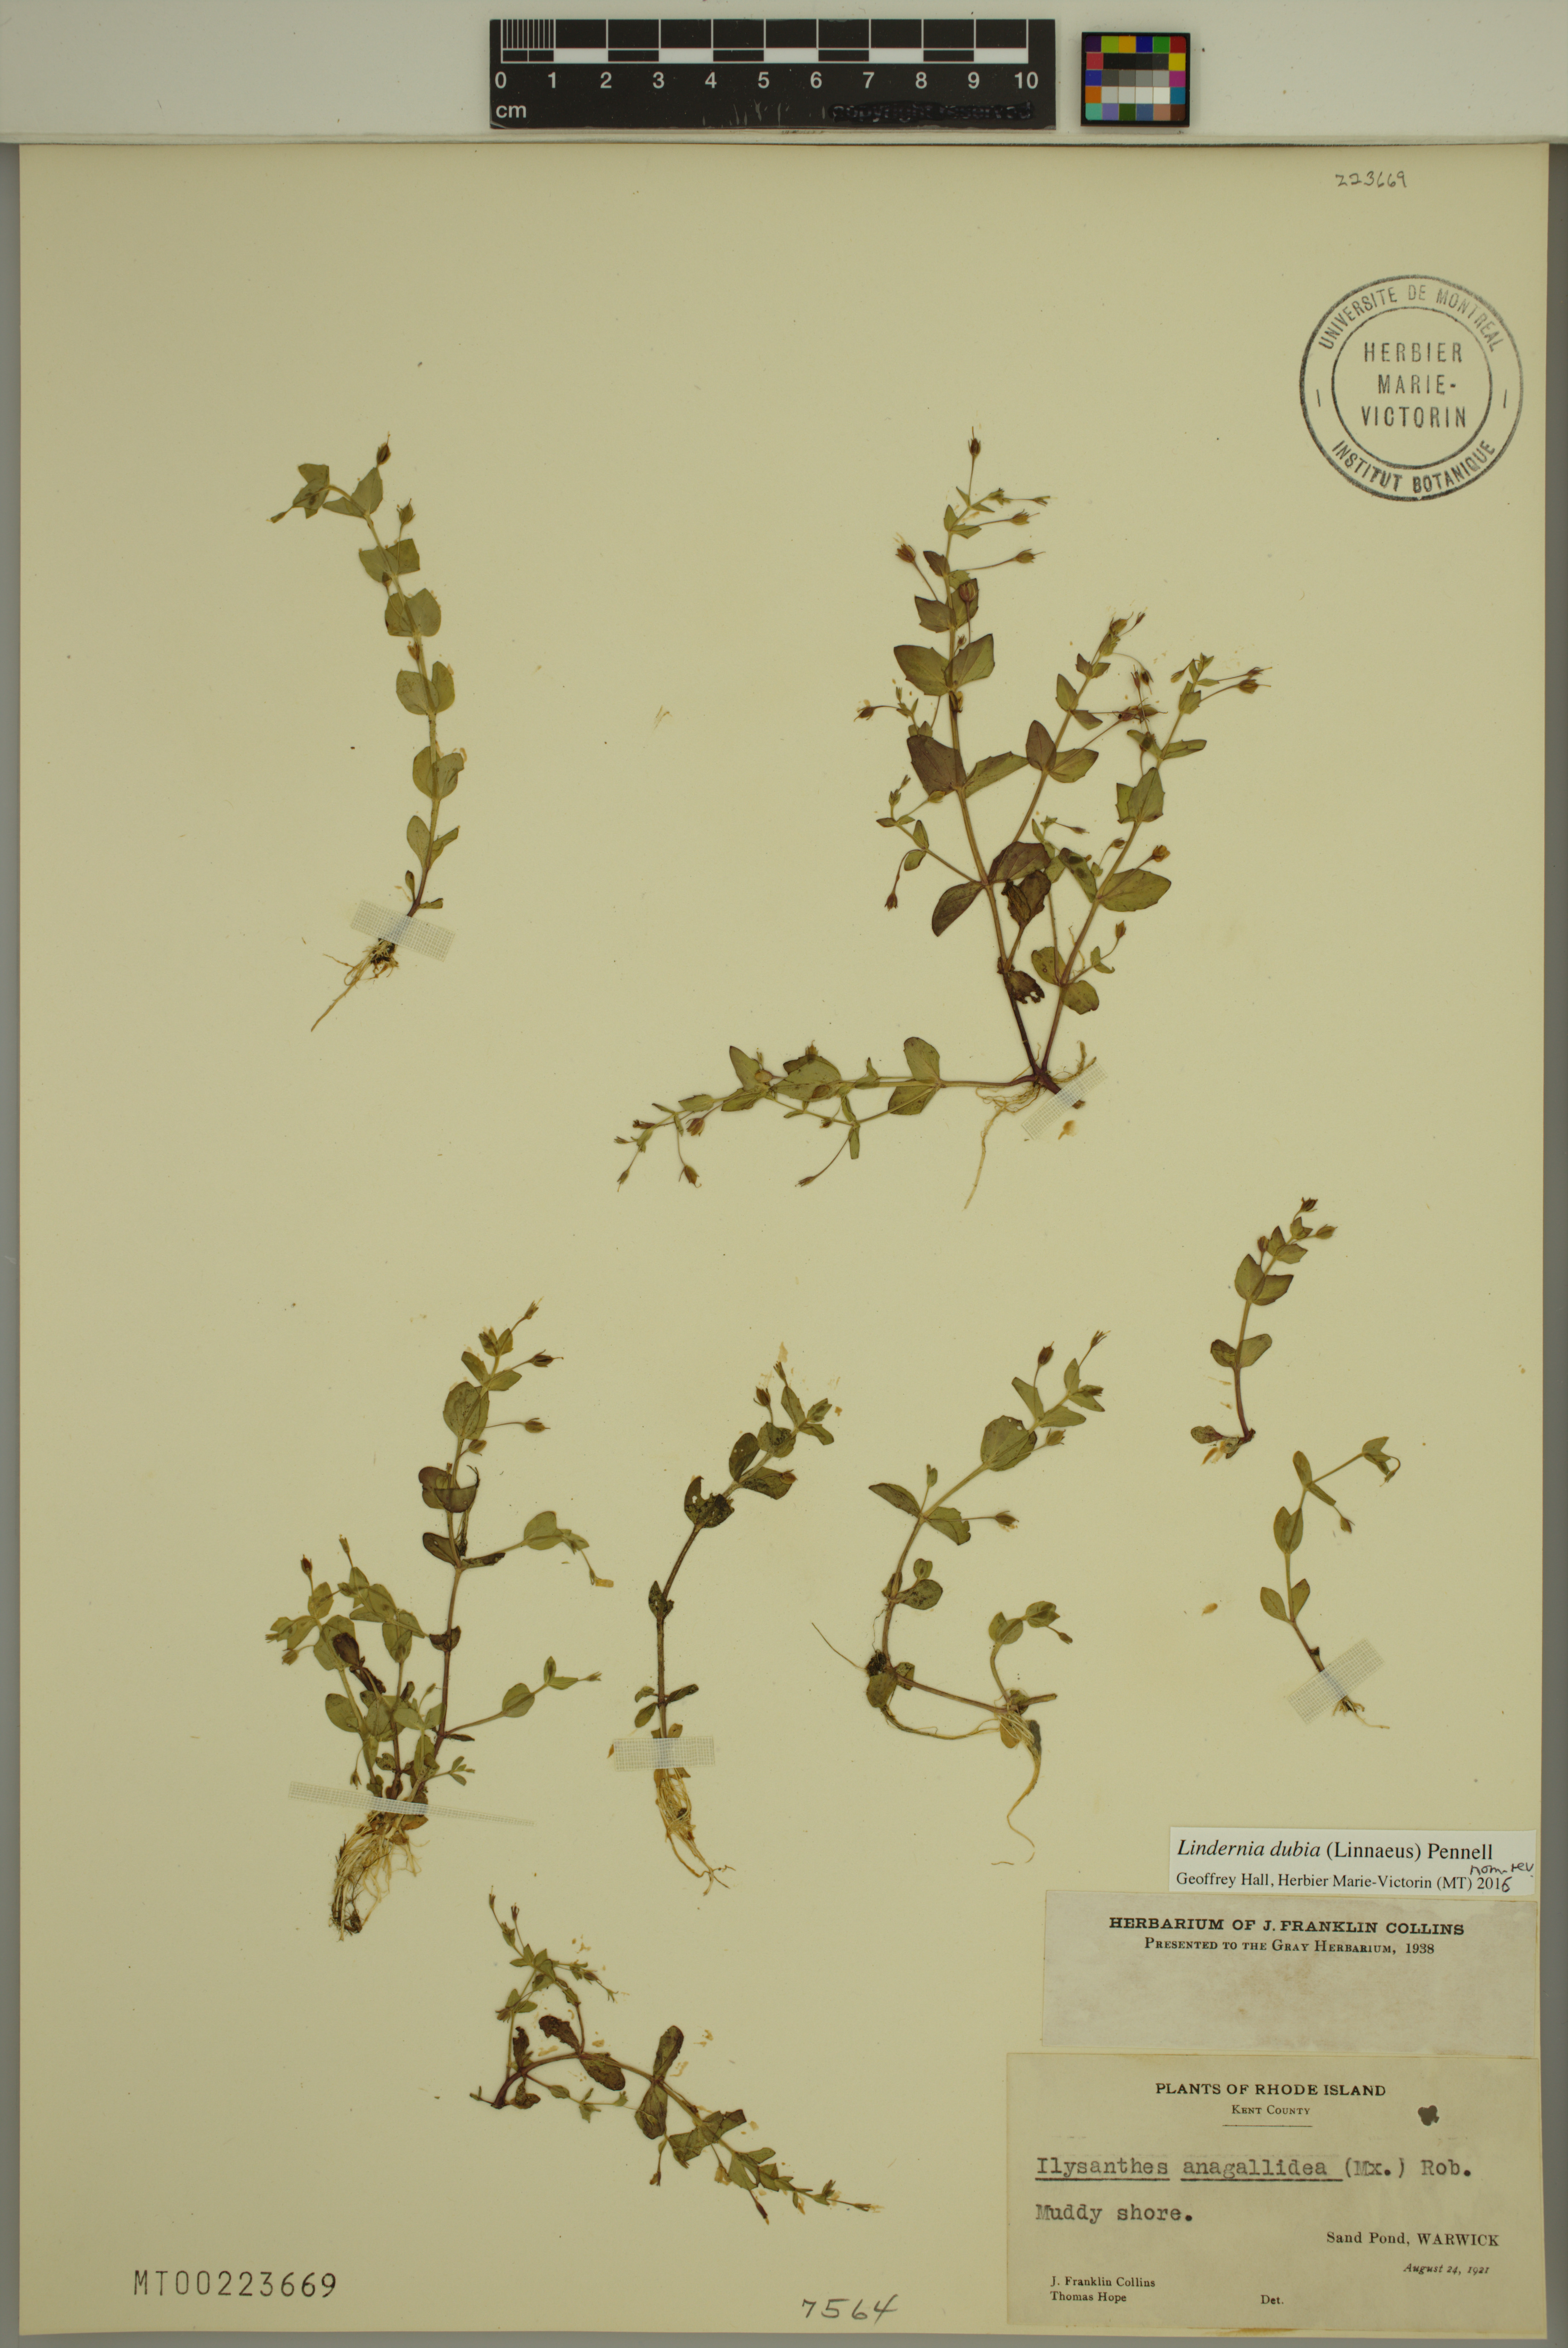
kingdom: Plantae
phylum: Tracheophyta
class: Magnoliopsida
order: Lamiales
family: Linderniaceae
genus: Lindernia
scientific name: Lindernia dubia
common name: Annual false pimpernel
